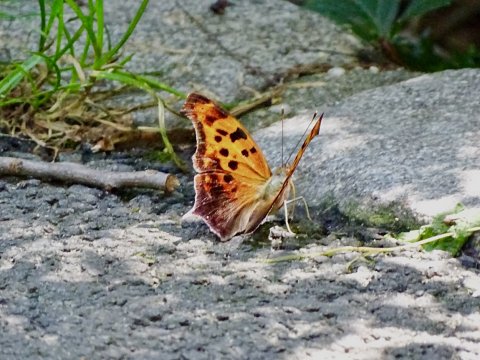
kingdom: Animalia
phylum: Arthropoda
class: Insecta
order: Lepidoptera
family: Nymphalidae
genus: Polygonia
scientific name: Polygonia interrogationis
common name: Question Mark
